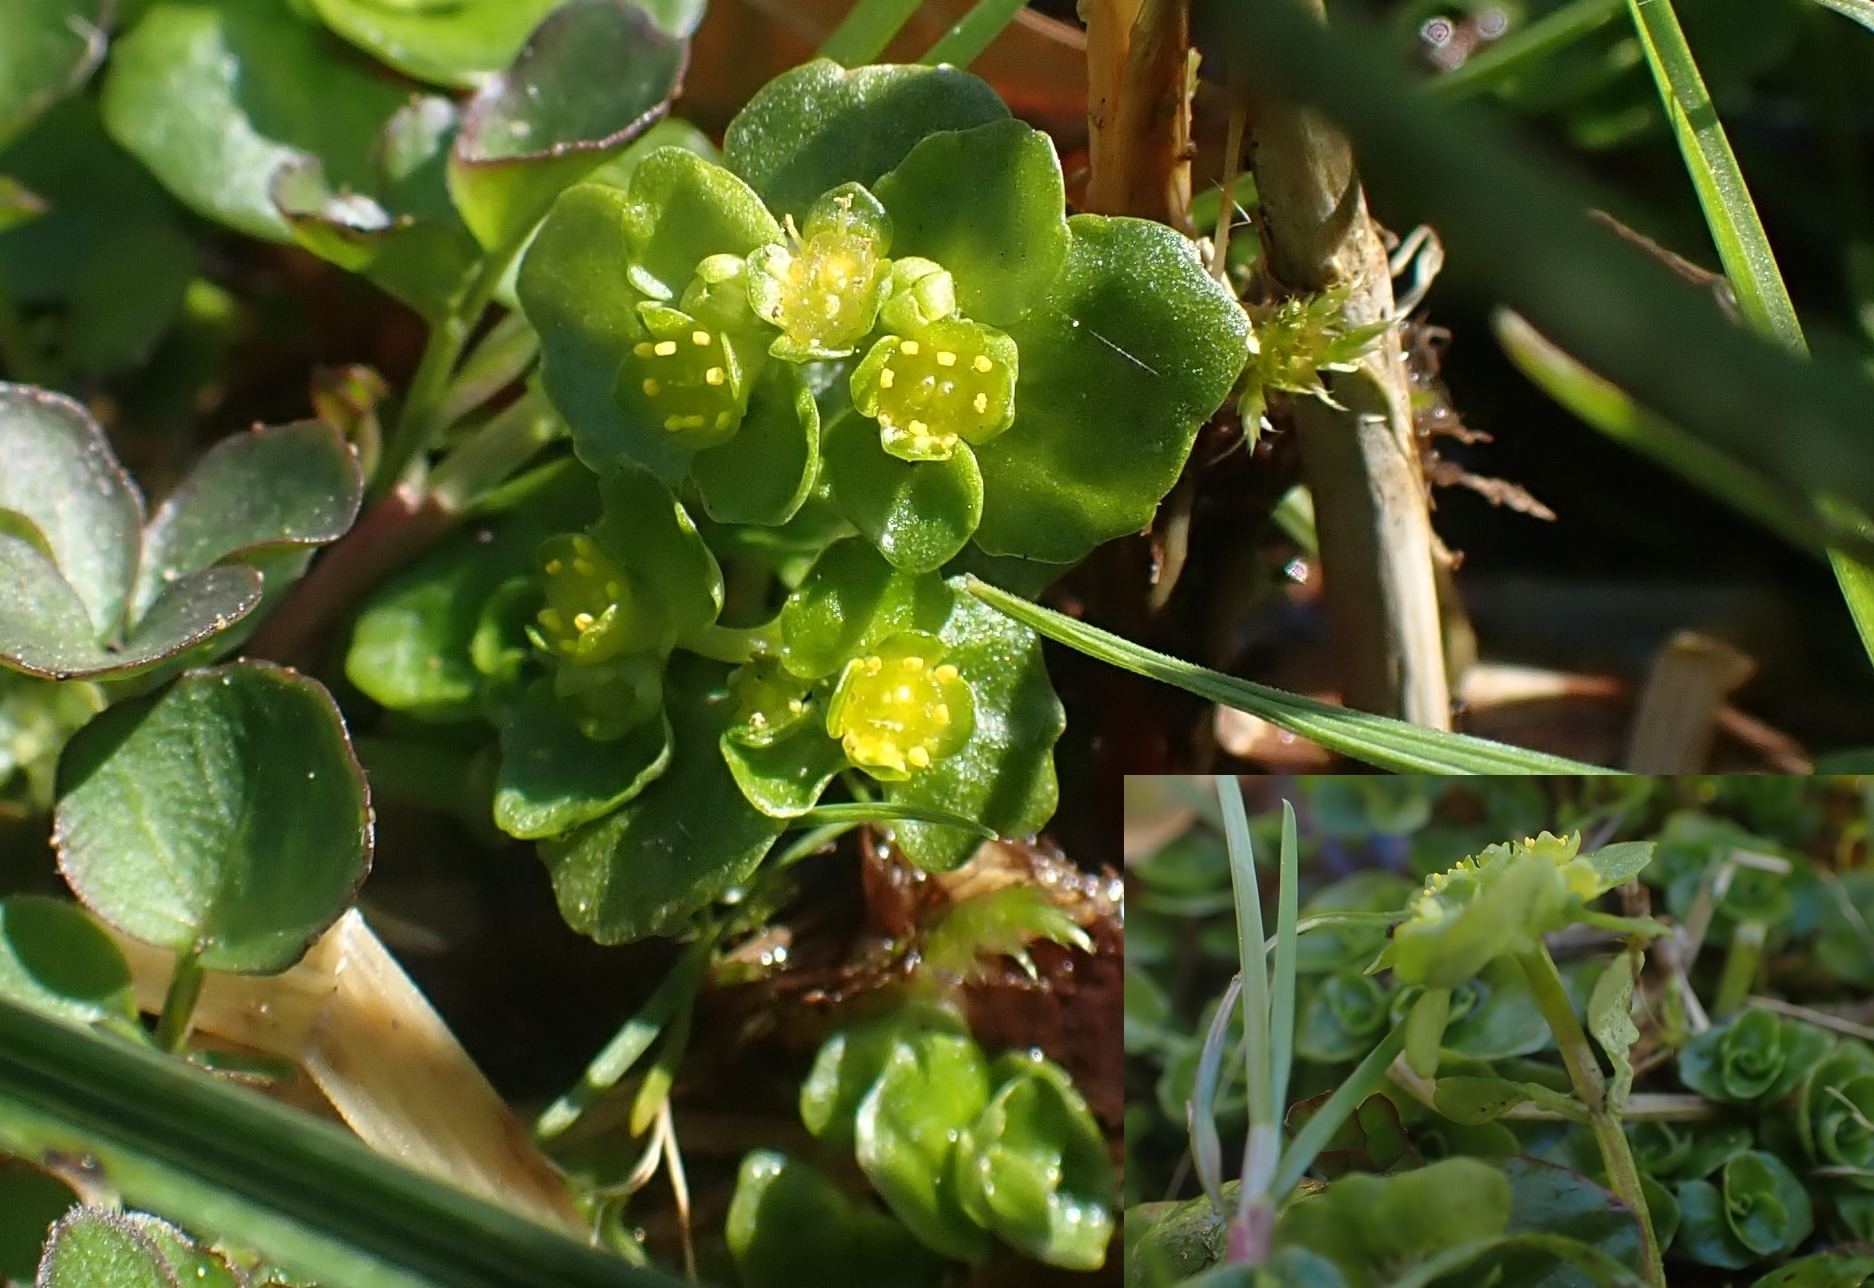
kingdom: Plantae
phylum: Tracheophyta
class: Magnoliopsida
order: Saxifragales
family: Saxifragaceae
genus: Chrysosplenium
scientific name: Chrysosplenium oppositifolium
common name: Småbladet milturt
